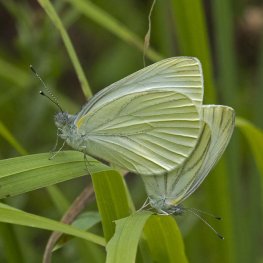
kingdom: Animalia
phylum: Arthropoda
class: Insecta
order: Lepidoptera
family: Pieridae
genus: Pieris
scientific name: Pieris oleracea
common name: Mustard White
